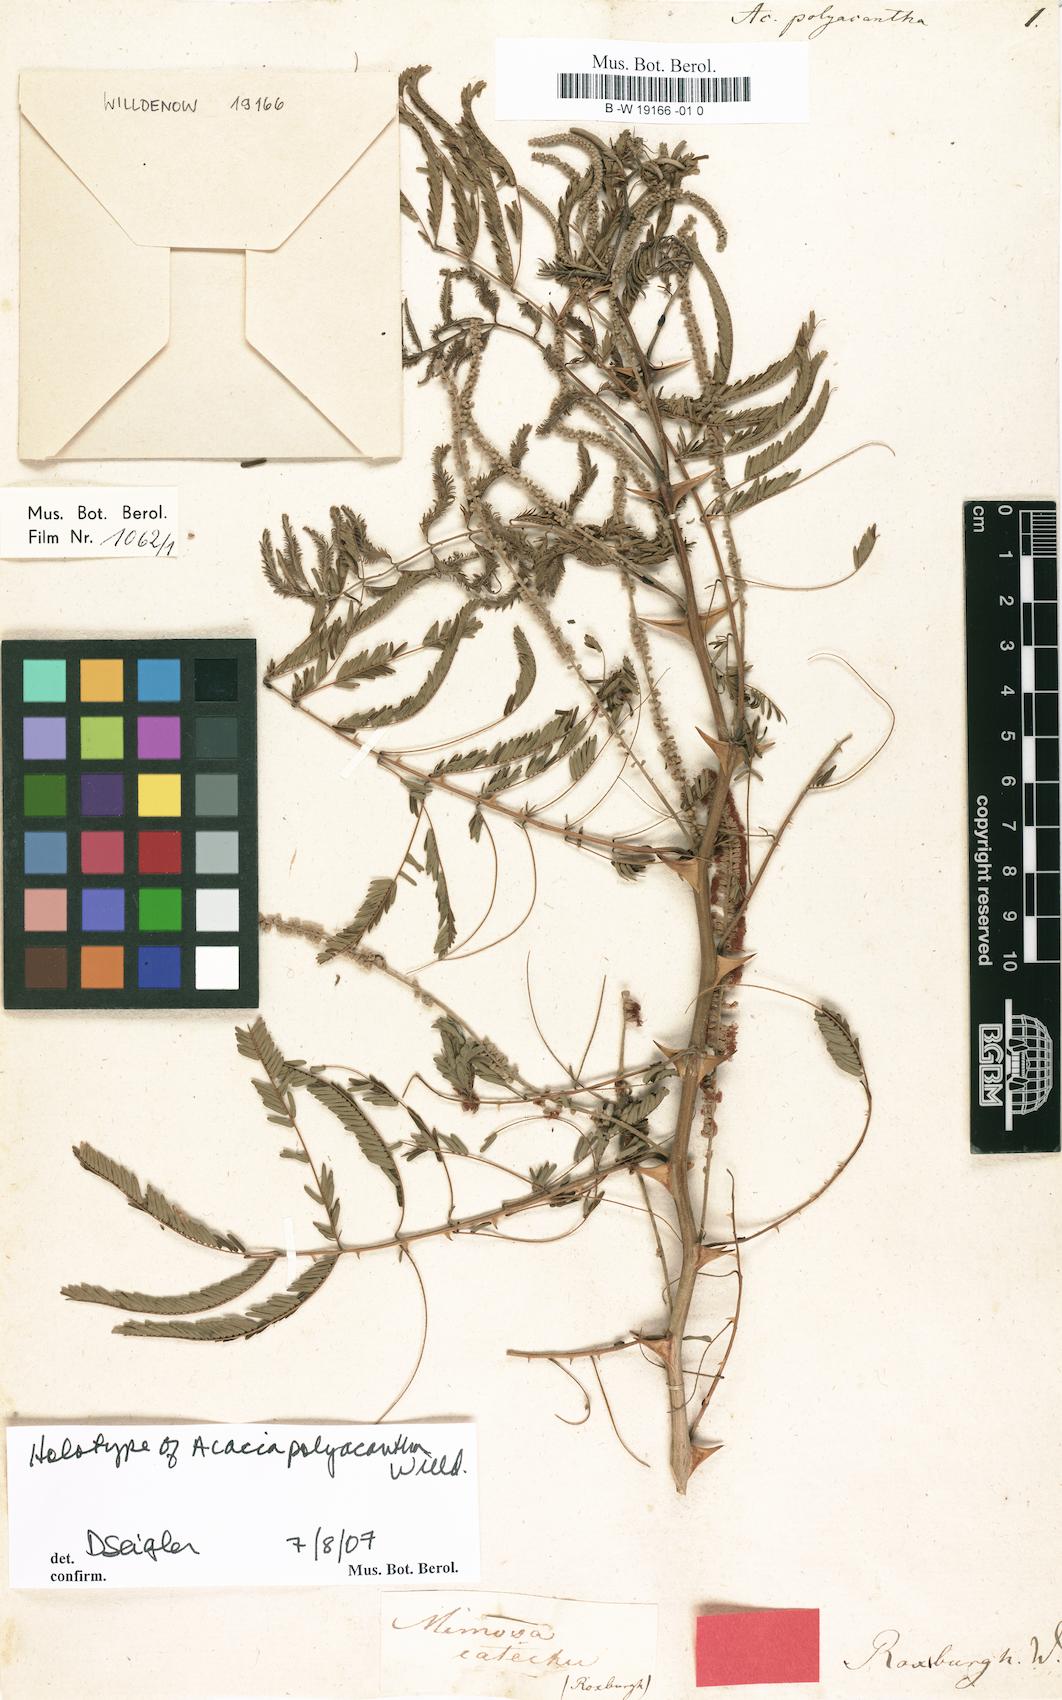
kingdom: Plantae
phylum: Tracheophyta
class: Magnoliopsida
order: Fabales
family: Fabaceae
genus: Senegalia
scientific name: Senegalia polyacantha
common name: Whitethorn
